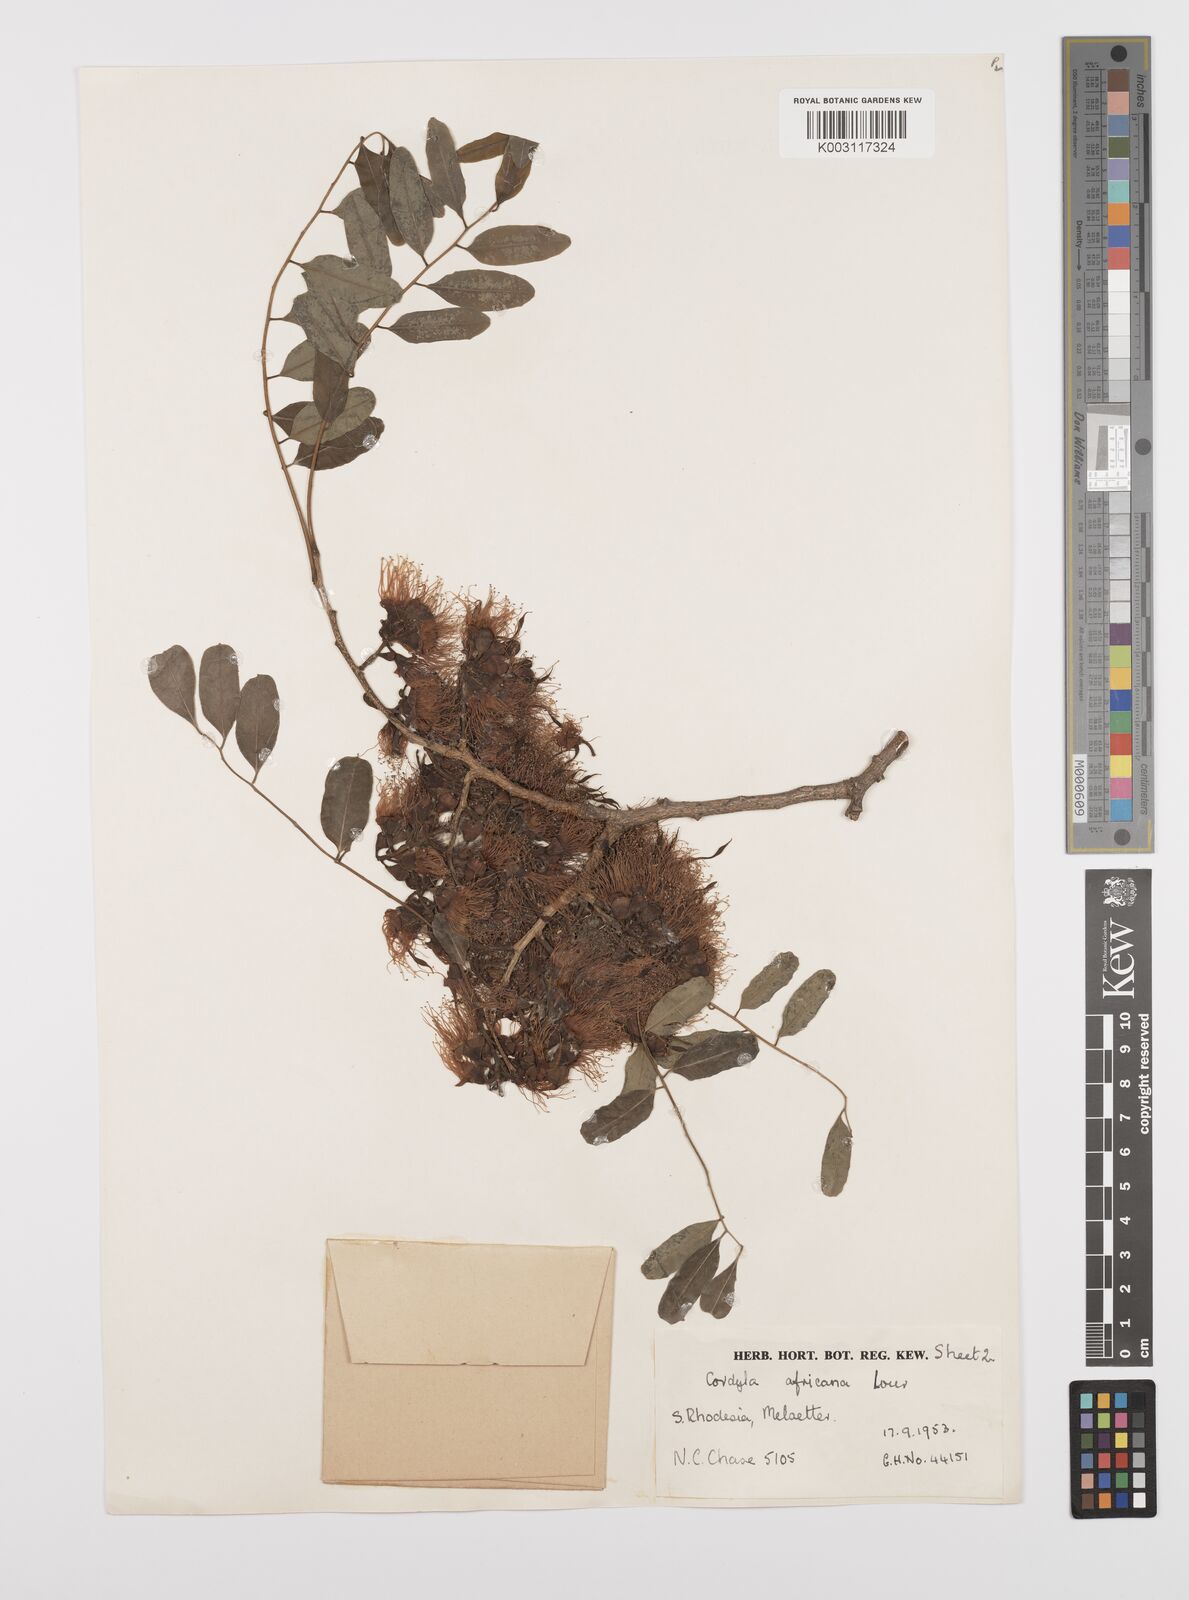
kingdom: Plantae
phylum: Tracheophyta
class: Magnoliopsida
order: Fabales
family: Fabaceae
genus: Cordyla
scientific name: Cordyla africana
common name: Wild mango
